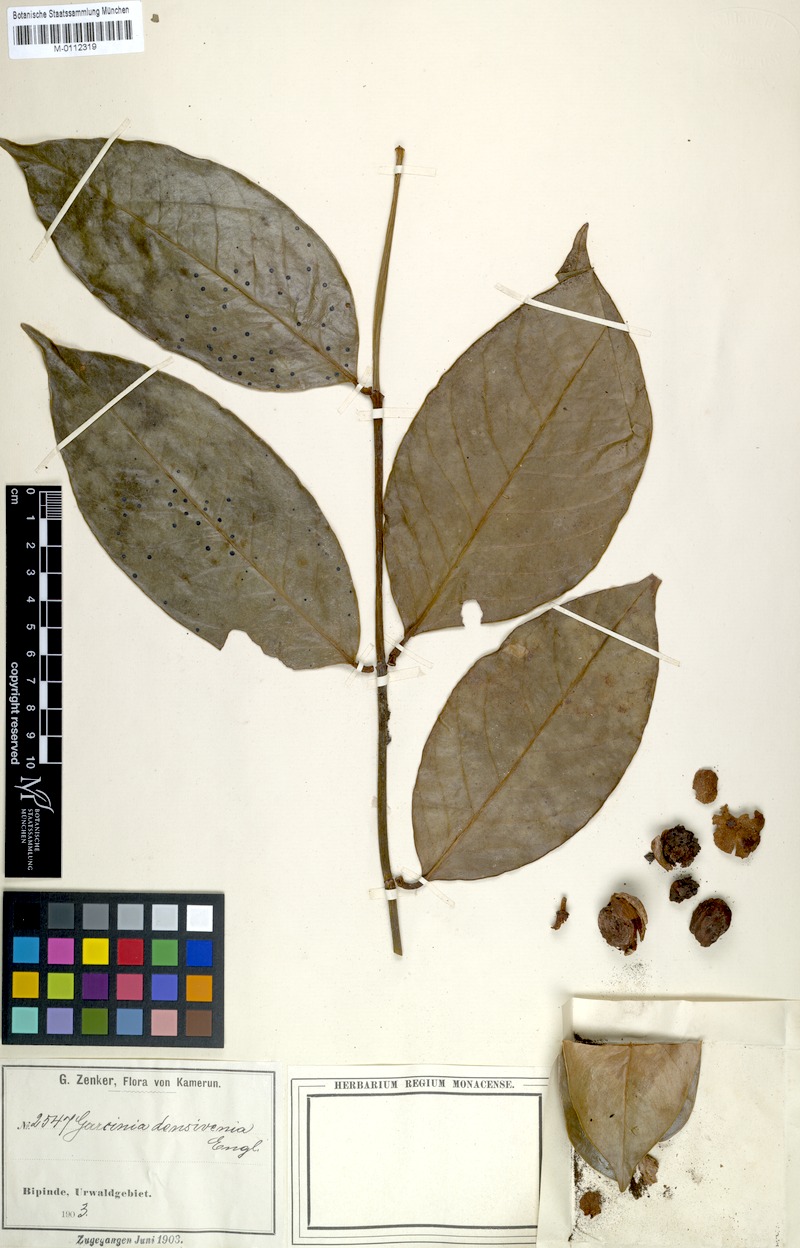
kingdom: Plantae
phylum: Tracheophyta
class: Magnoliopsida
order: Malpighiales
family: Clusiaceae
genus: Garcinia
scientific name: Garcinia densivenia
